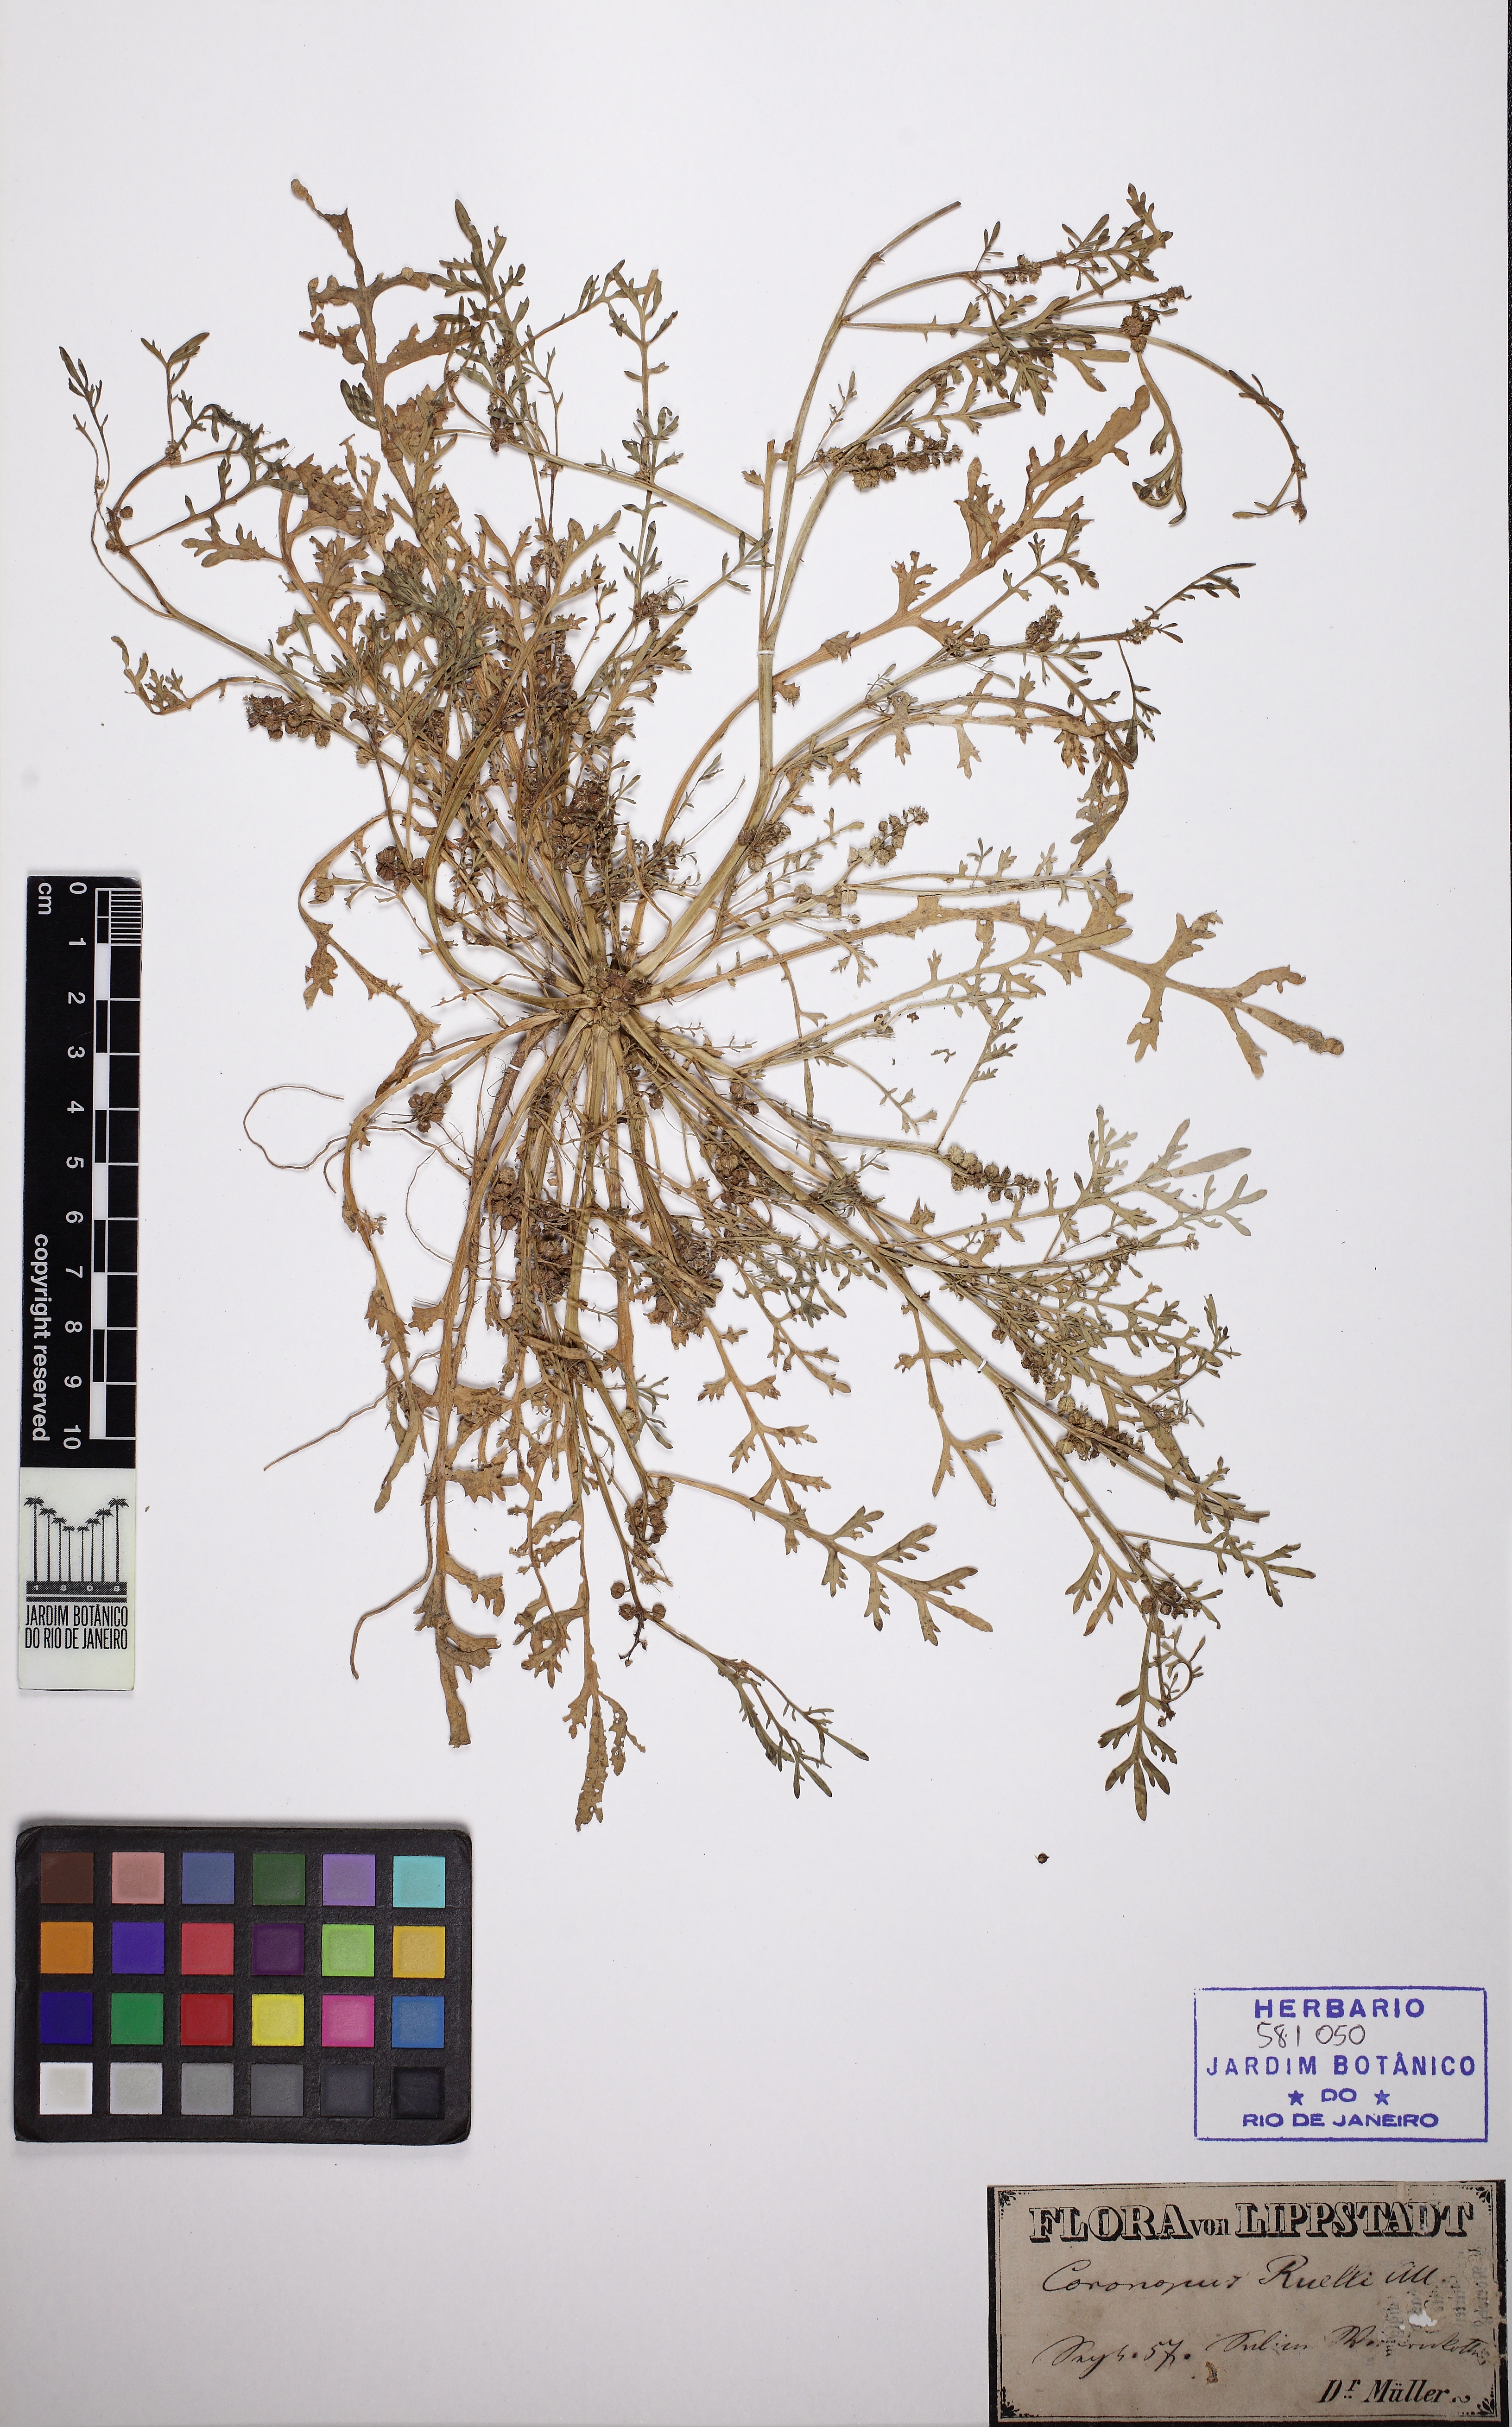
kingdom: Plantae
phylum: Tracheophyta
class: Magnoliopsida
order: Brassicales
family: Brassicaceae
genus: Lepidium
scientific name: Lepidium coronopus
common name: Greater swinecress
